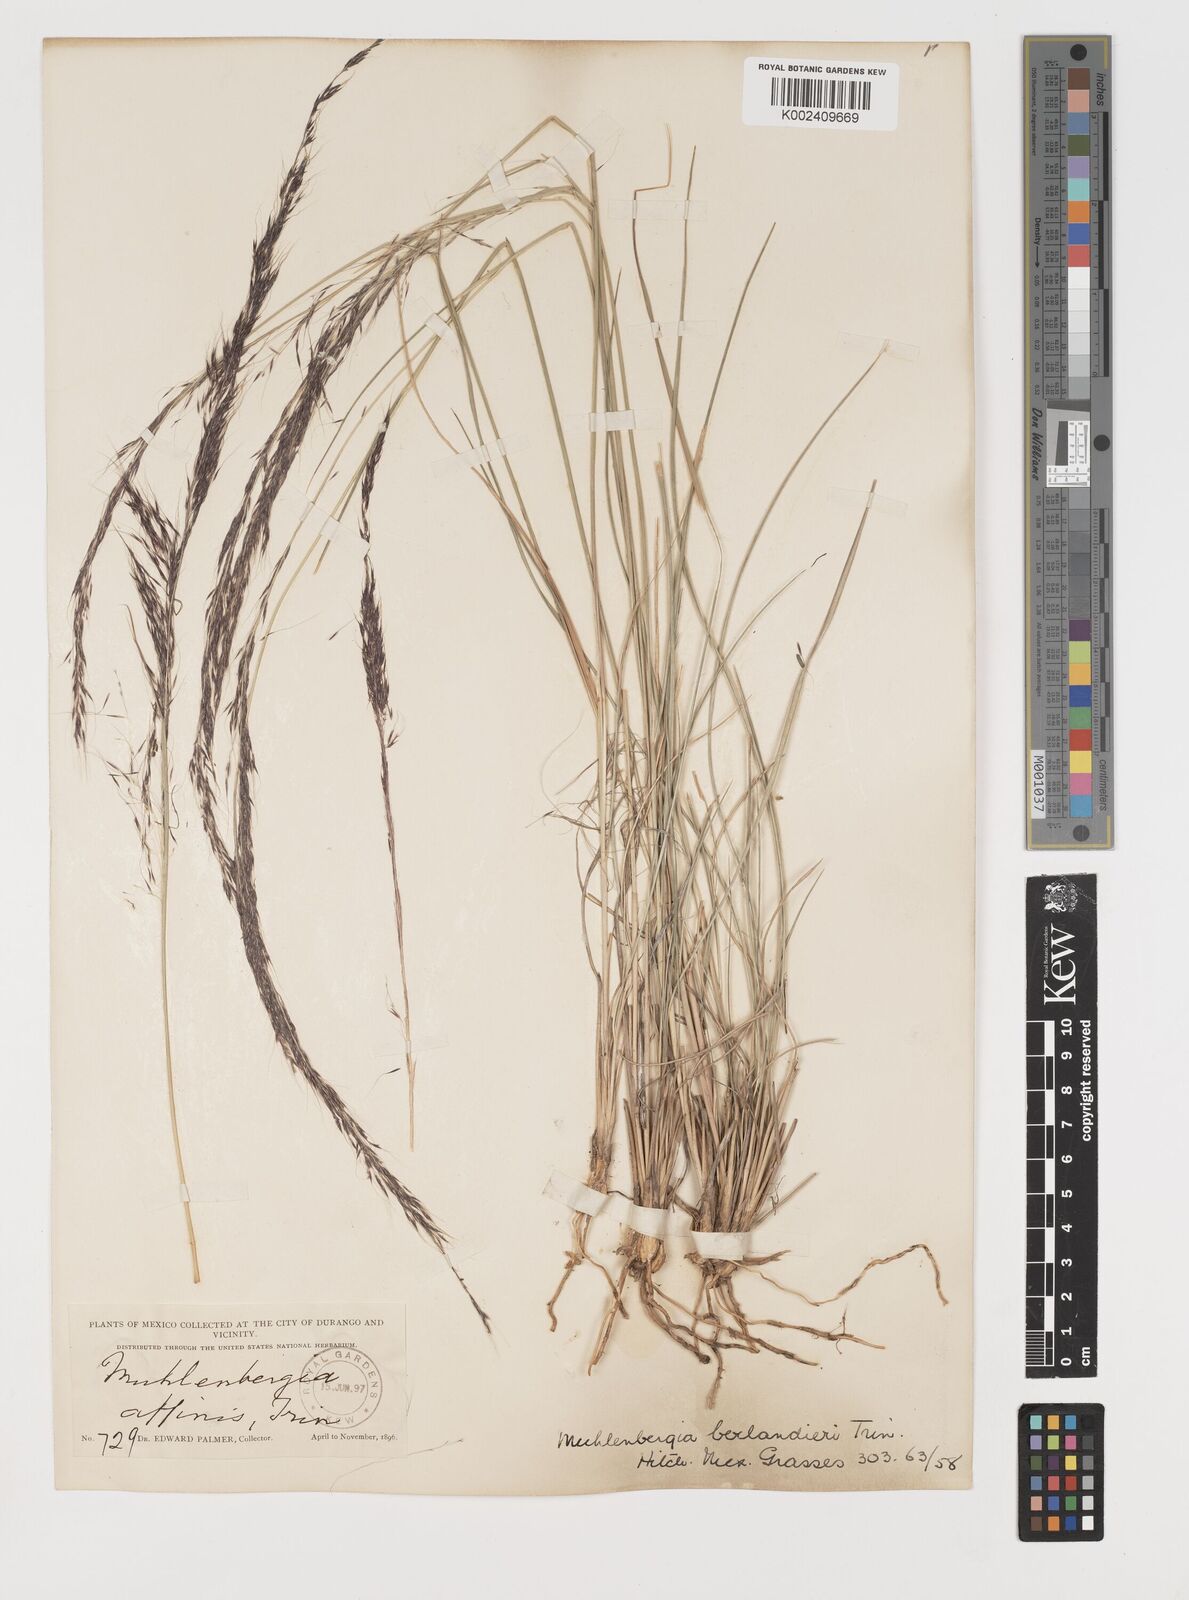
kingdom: Plantae
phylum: Tracheophyta
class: Liliopsida
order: Poales
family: Poaceae
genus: Muhlenbergia
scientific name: Muhlenbergia rigida
